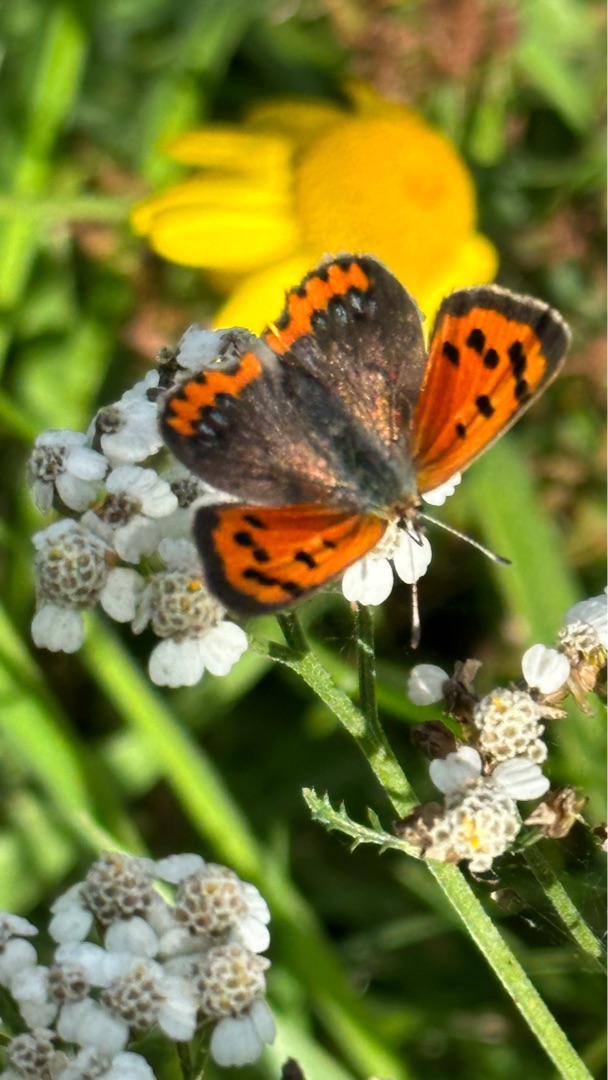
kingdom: Animalia
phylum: Arthropoda
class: Insecta
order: Lepidoptera
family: Lycaenidae
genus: Lycaena
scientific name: Lycaena phlaeas
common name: Lille ildfugl
